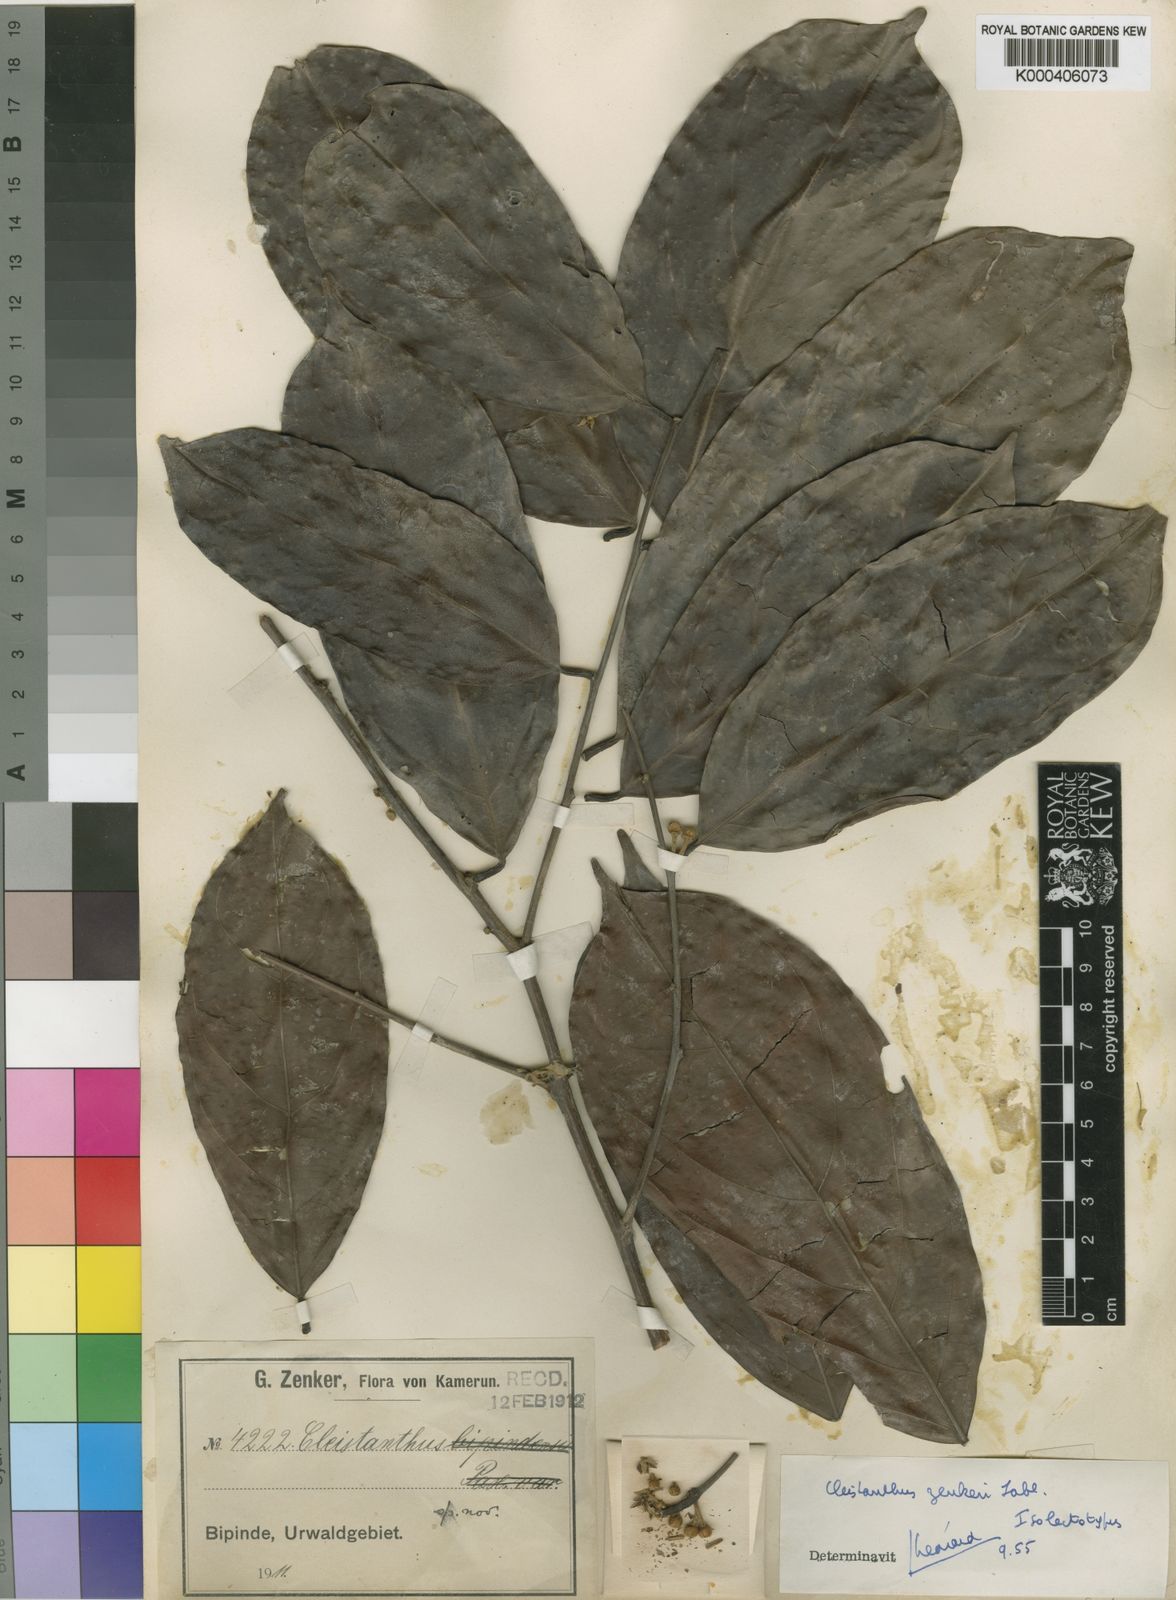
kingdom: Plantae
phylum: Tracheophyta
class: Magnoliopsida
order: Malpighiales
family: Phyllanthaceae
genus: Cleistanthus
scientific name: Cleistanthus zenkeri
